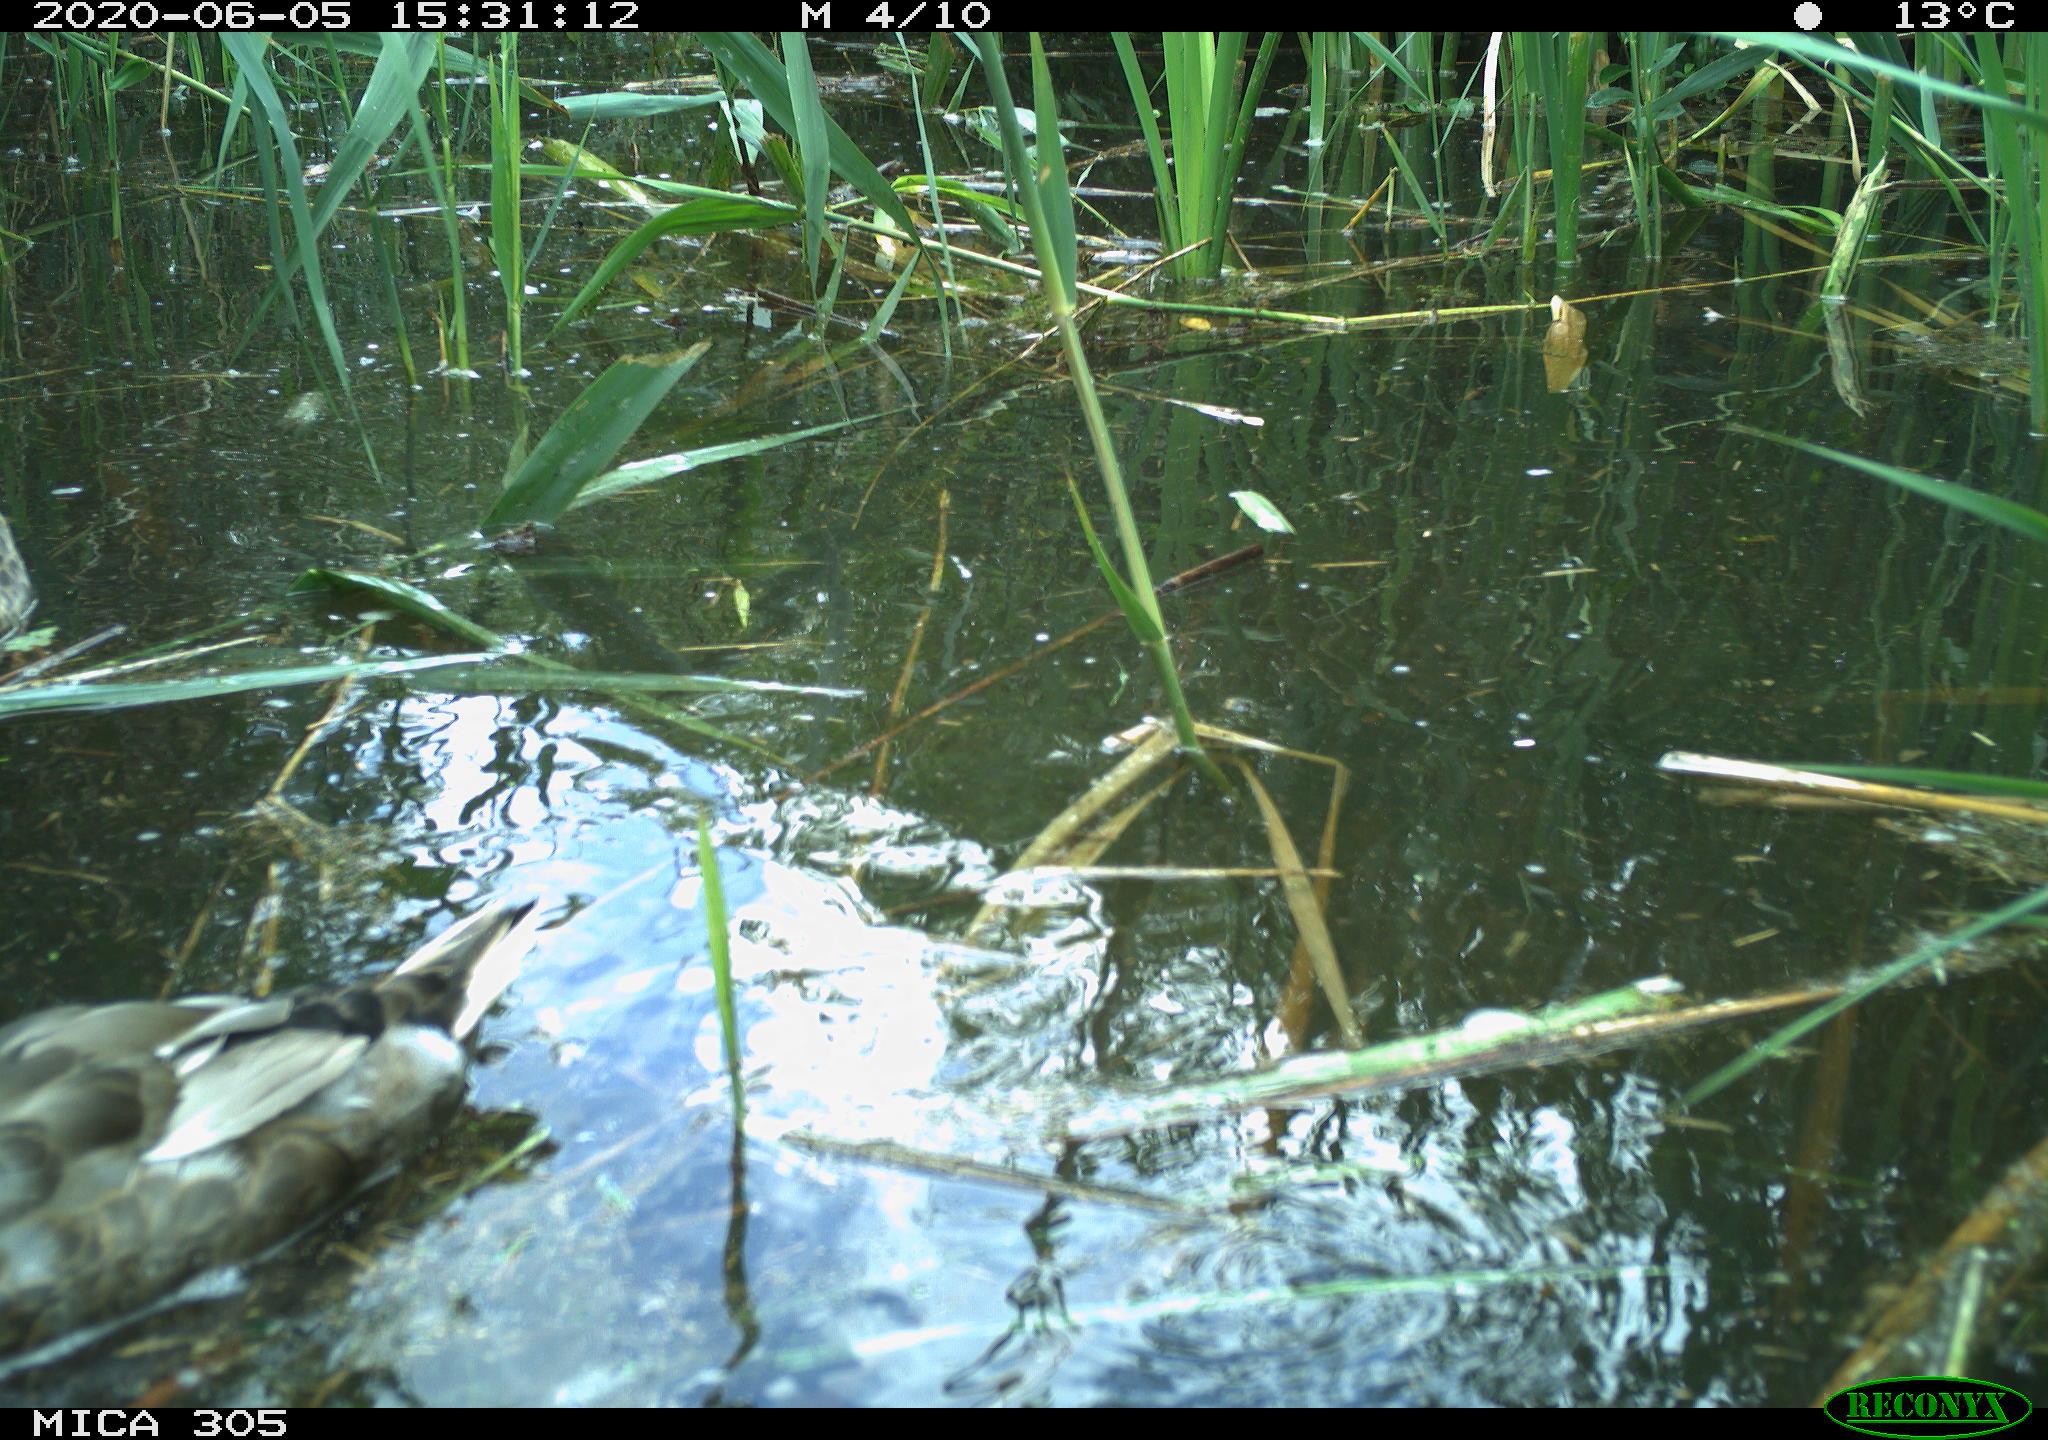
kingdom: Animalia
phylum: Chordata
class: Aves
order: Anseriformes
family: Anatidae
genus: Anas
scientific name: Anas platyrhynchos
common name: Mallard
